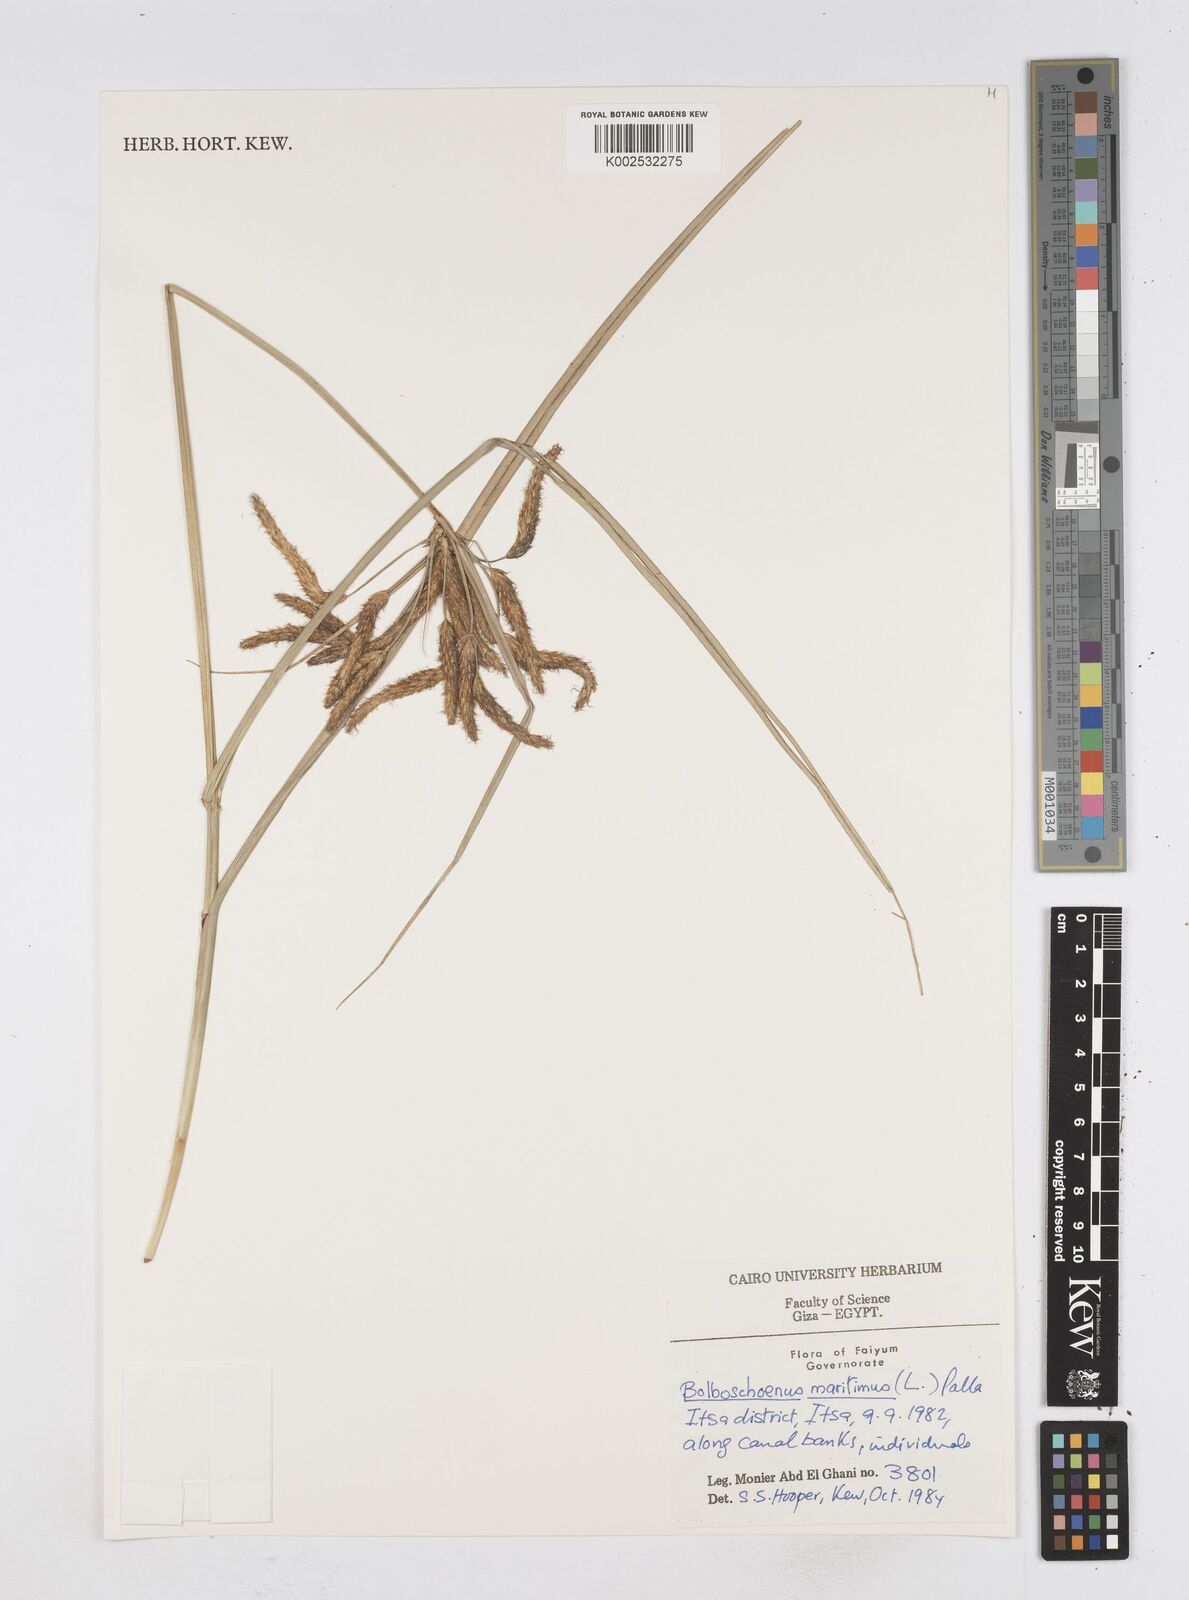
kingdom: Plantae
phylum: Tracheophyta
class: Liliopsida
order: Poales
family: Cyperaceae
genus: Bolboschoenus
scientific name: Bolboschoenus maritimus
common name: Sea club-rush
